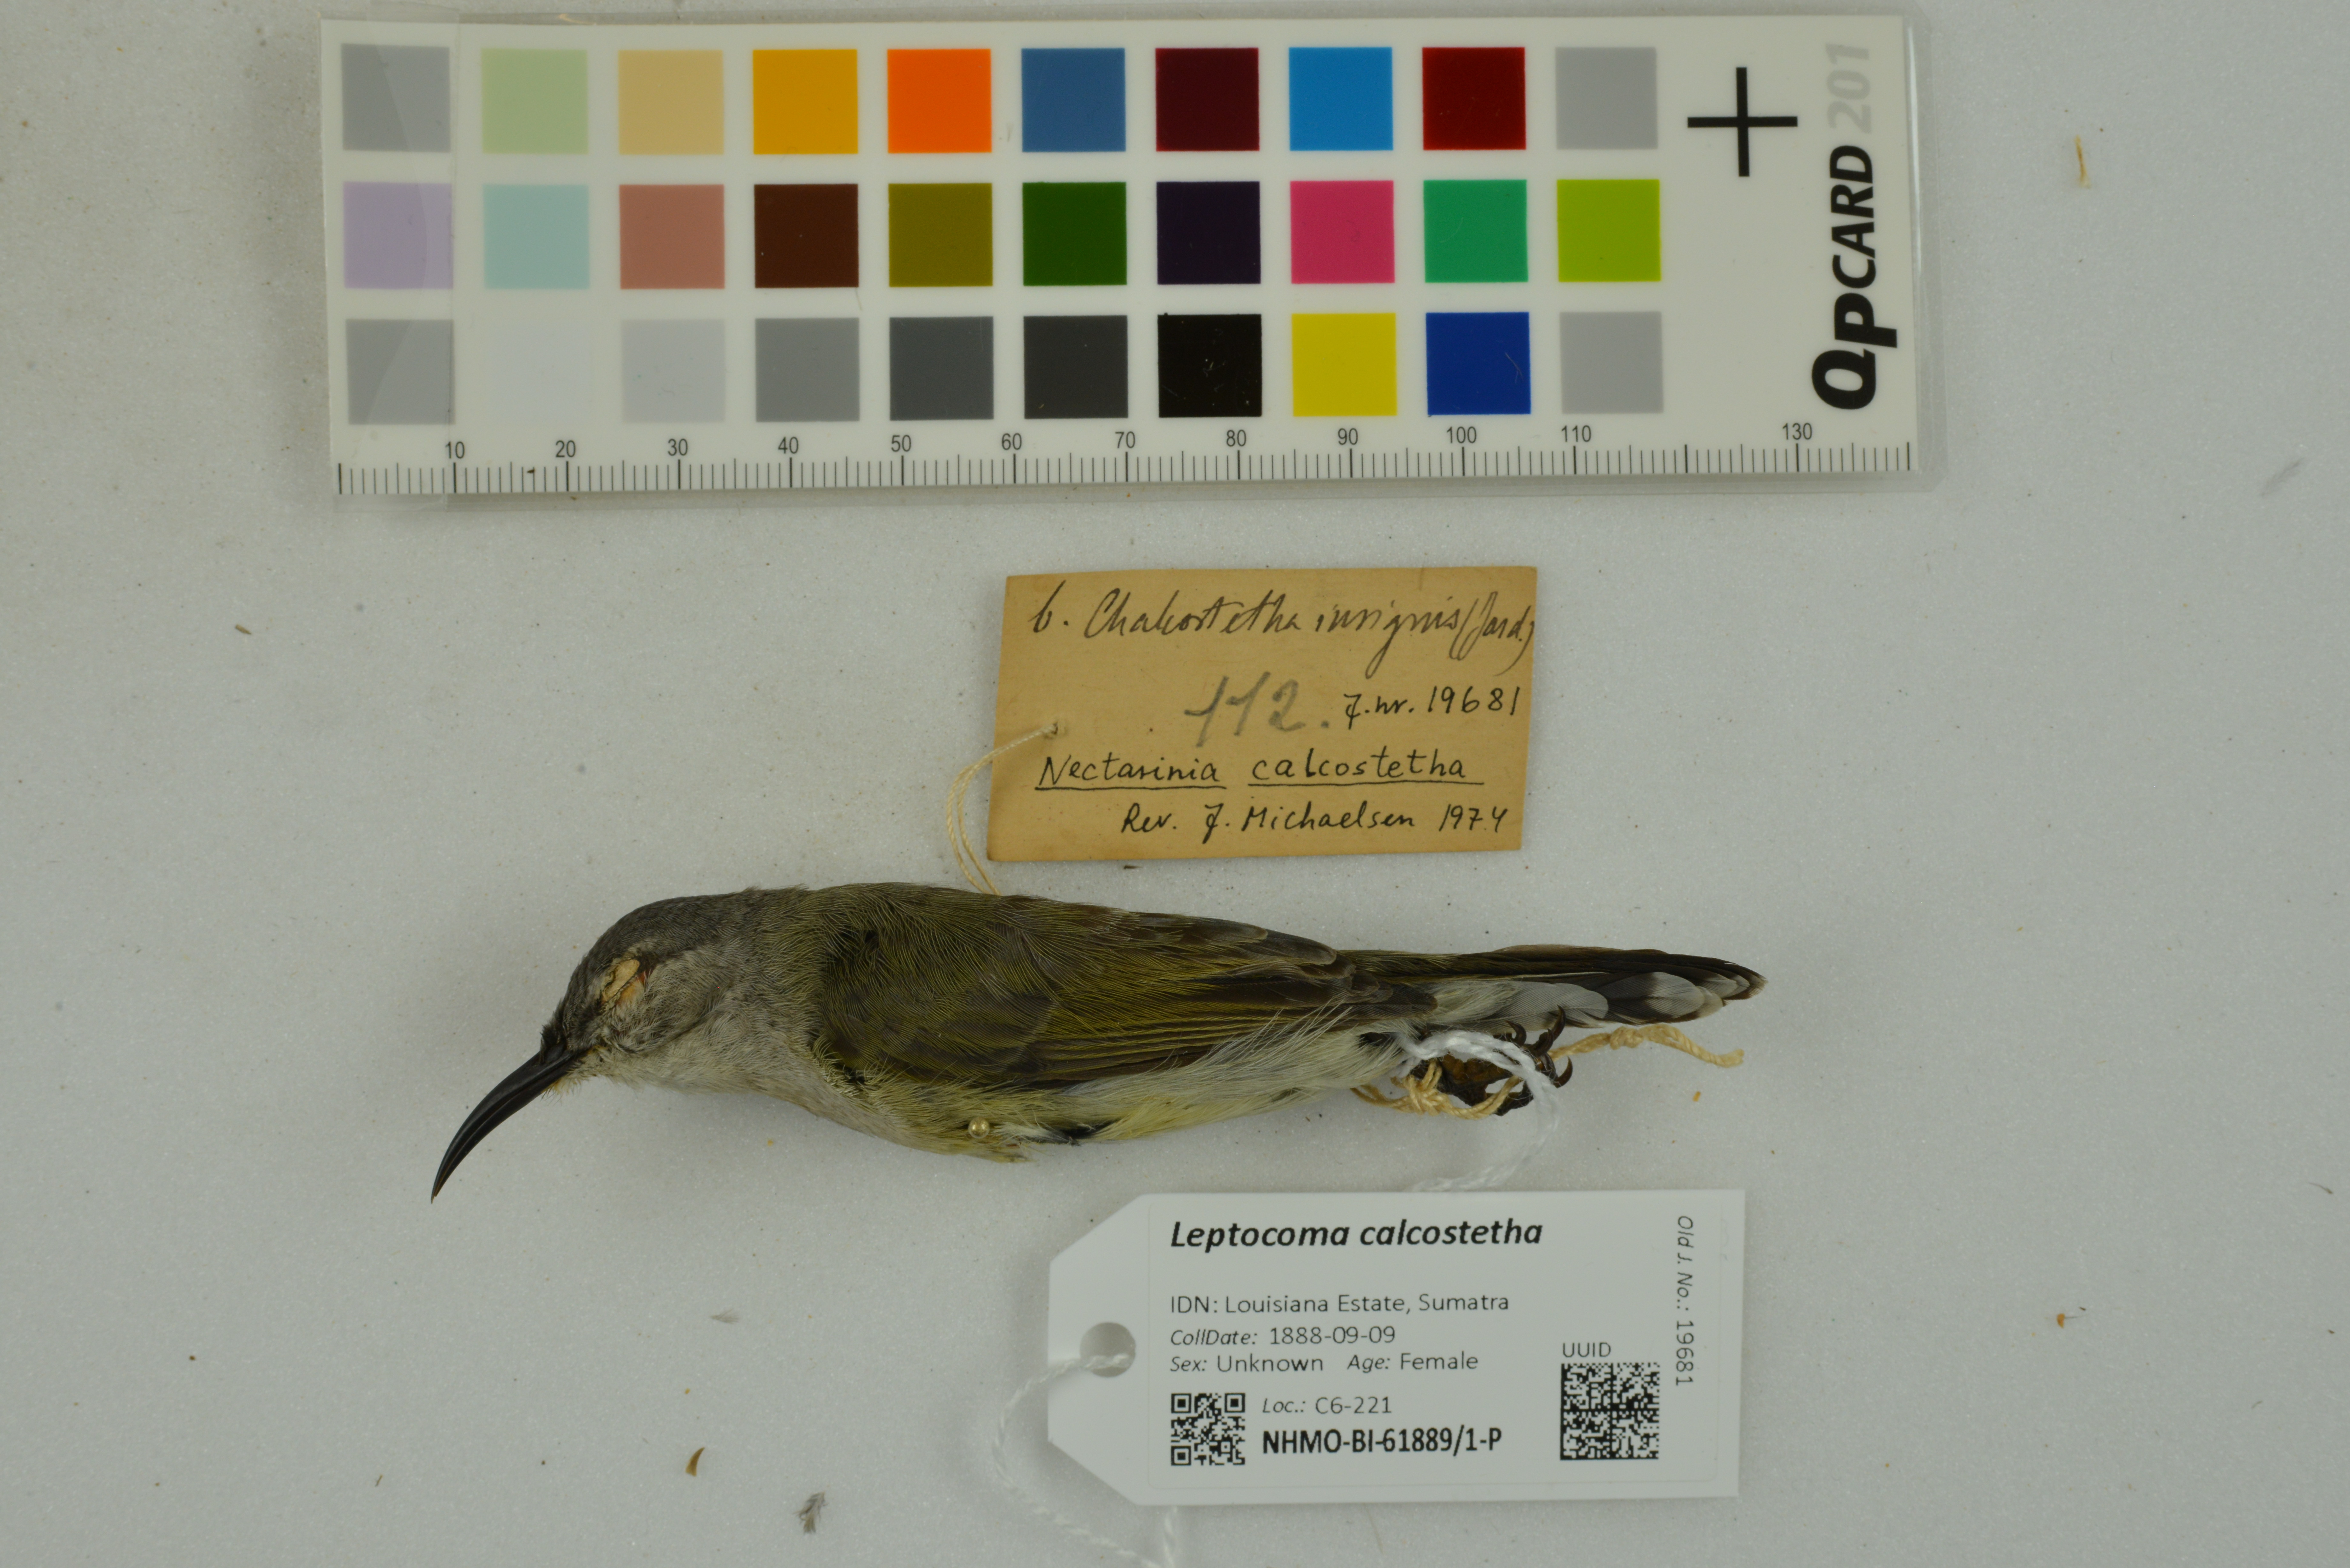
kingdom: Animalia
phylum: Chordata
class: Aves
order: Passeriformes
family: Nectariniidae
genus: Leptocoma
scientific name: Leptocoma calcostetha
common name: Copper-throated sunbird
